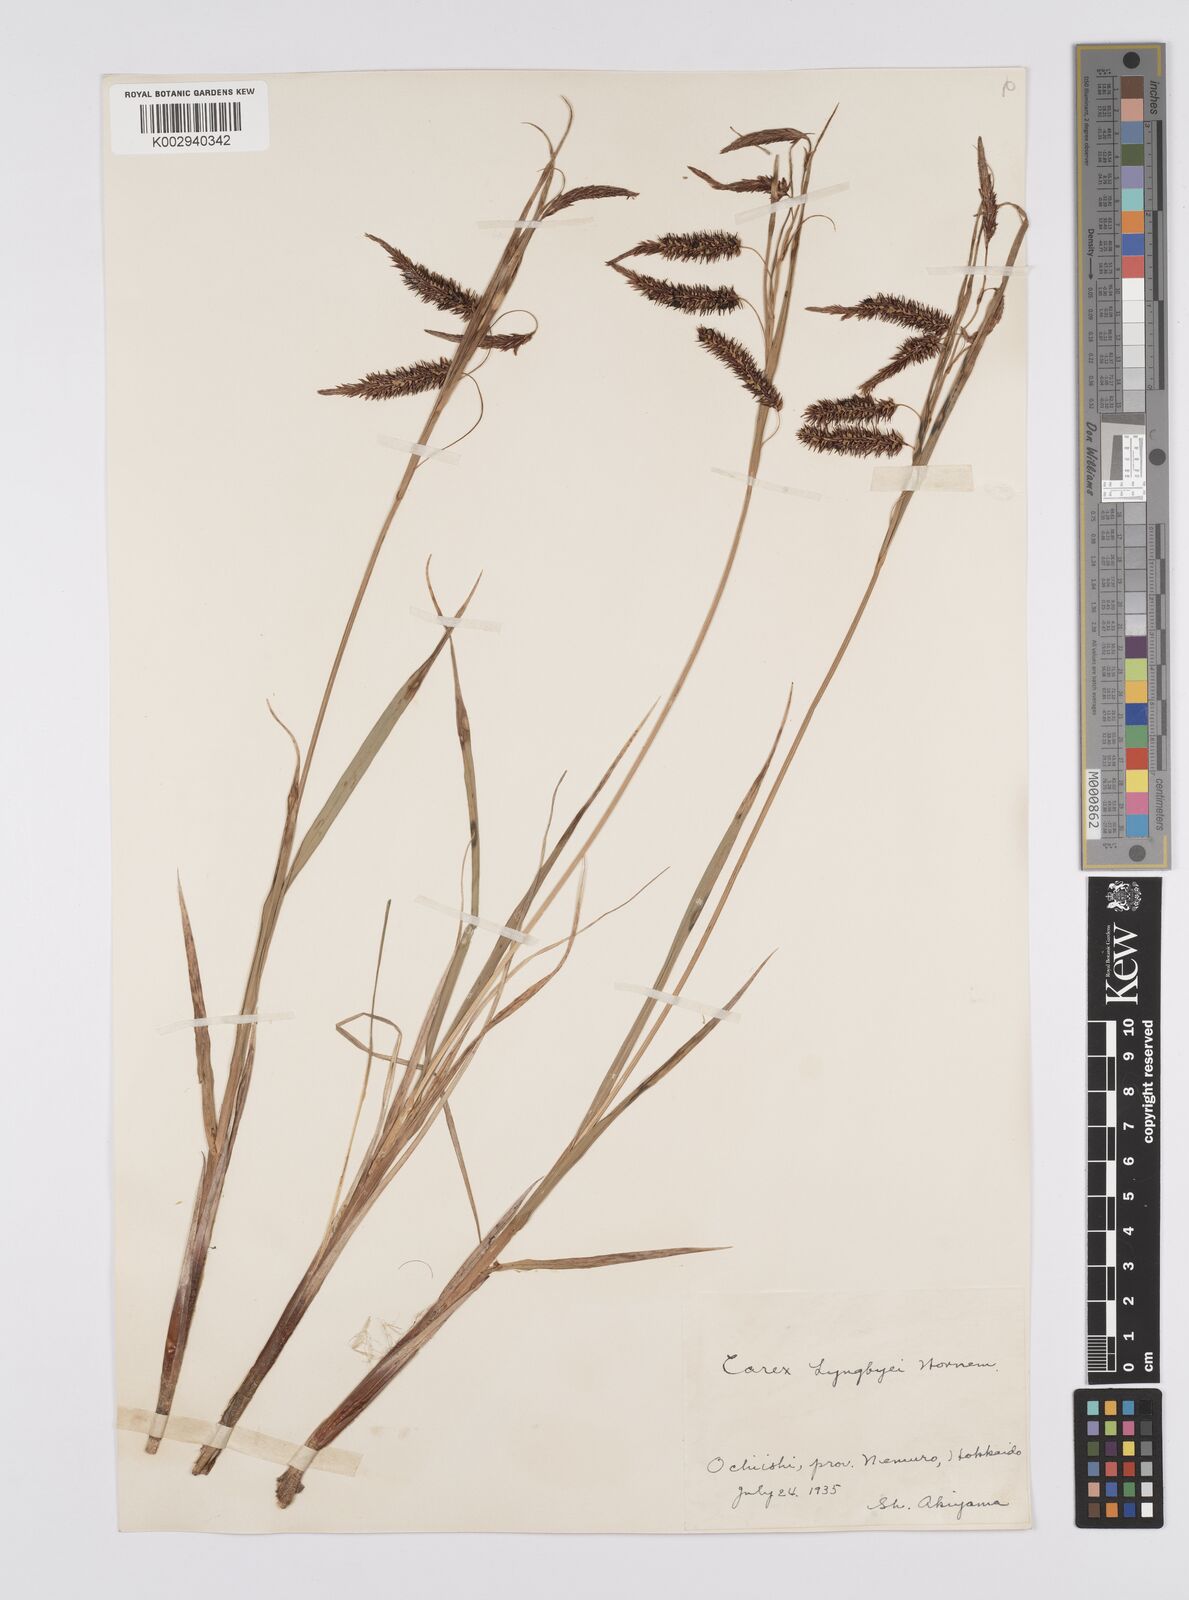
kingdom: Plantae
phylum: Tracheophyta
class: Liliopsida
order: Poales
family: Cyperaceae
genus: Carex
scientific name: Carex lyngbyei
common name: Lyngbye's sedge
